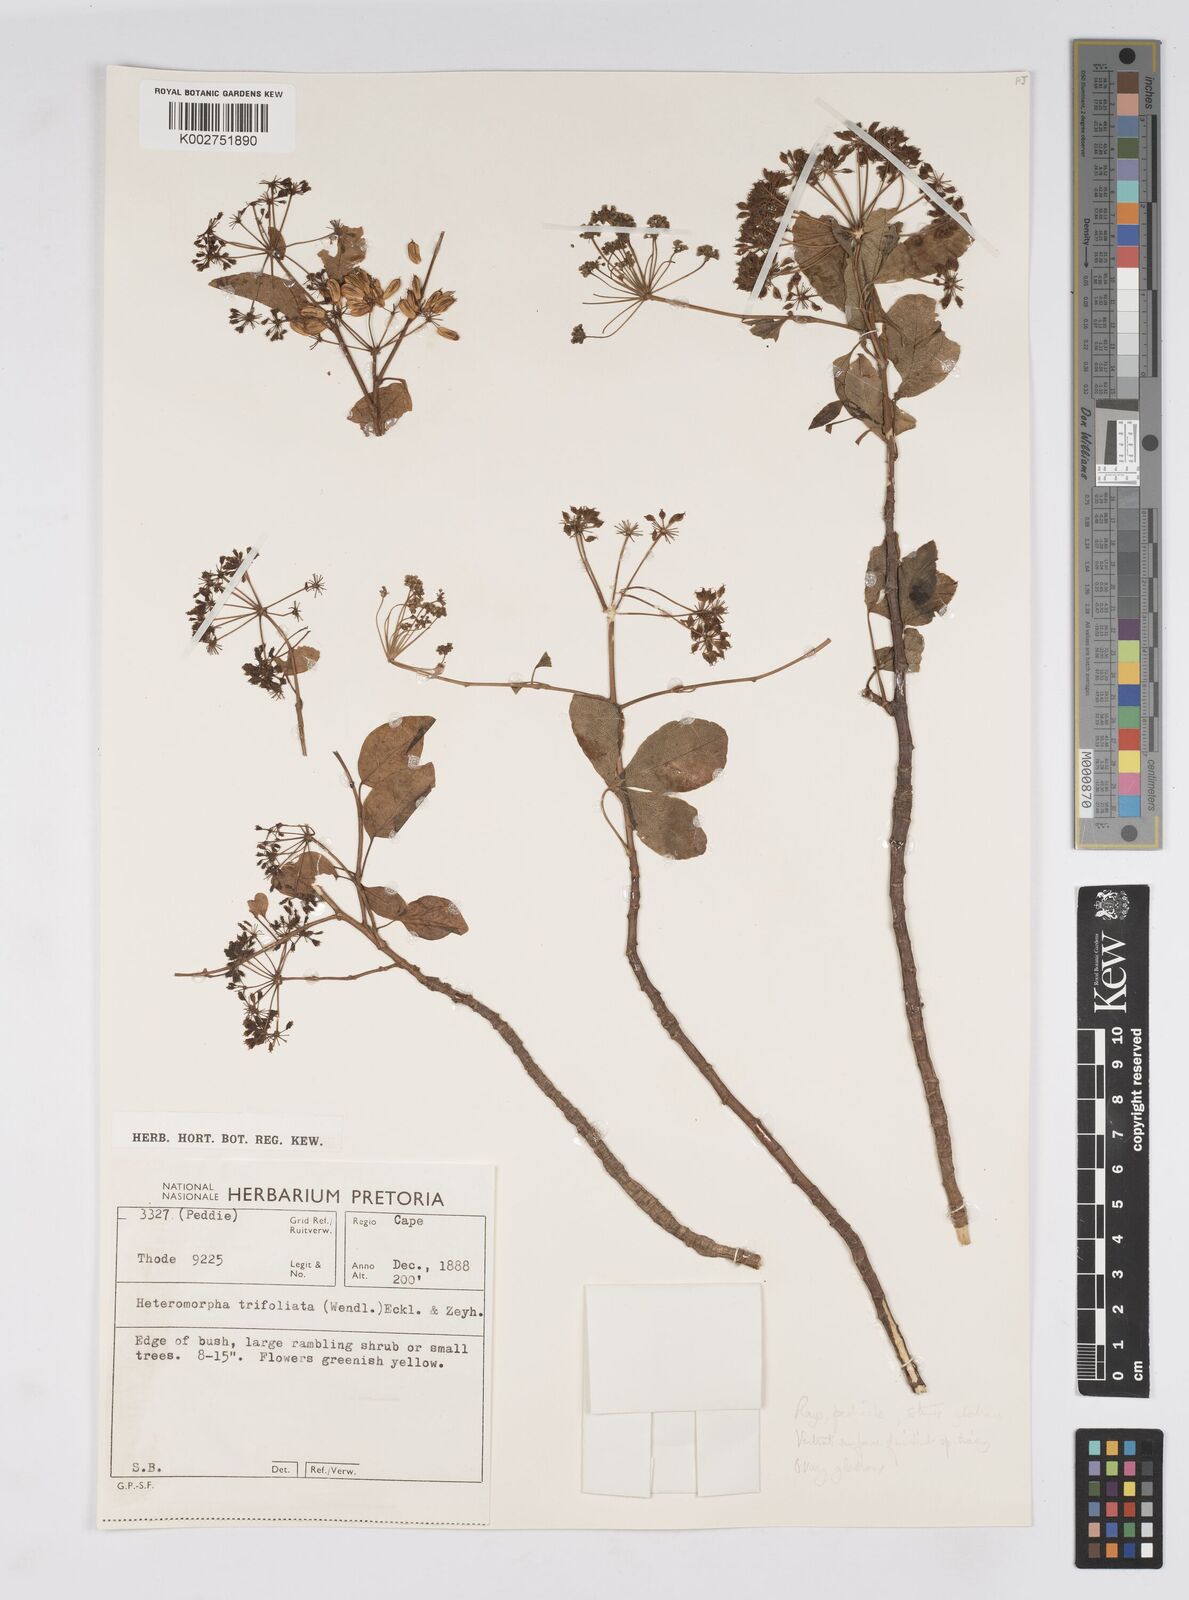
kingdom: Plantae
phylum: Tracheophyta
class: Magnoliopsida
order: Apiales
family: Apiaceae
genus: Heteromorpha
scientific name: Heteromorpha arborescens
